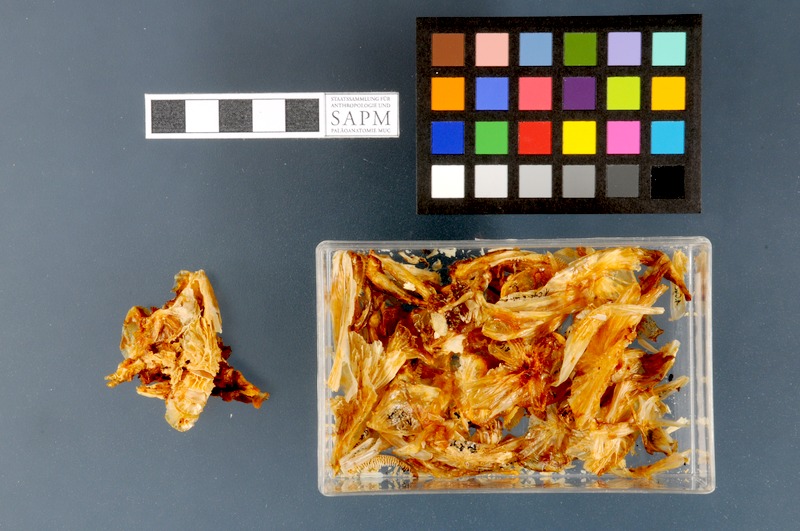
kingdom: Animalia
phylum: Chordata
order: Scorpaeniformes
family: Cyclopteridae
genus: Cyclopterus
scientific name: Cyclopterus lumpus
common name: Lumpsucker
